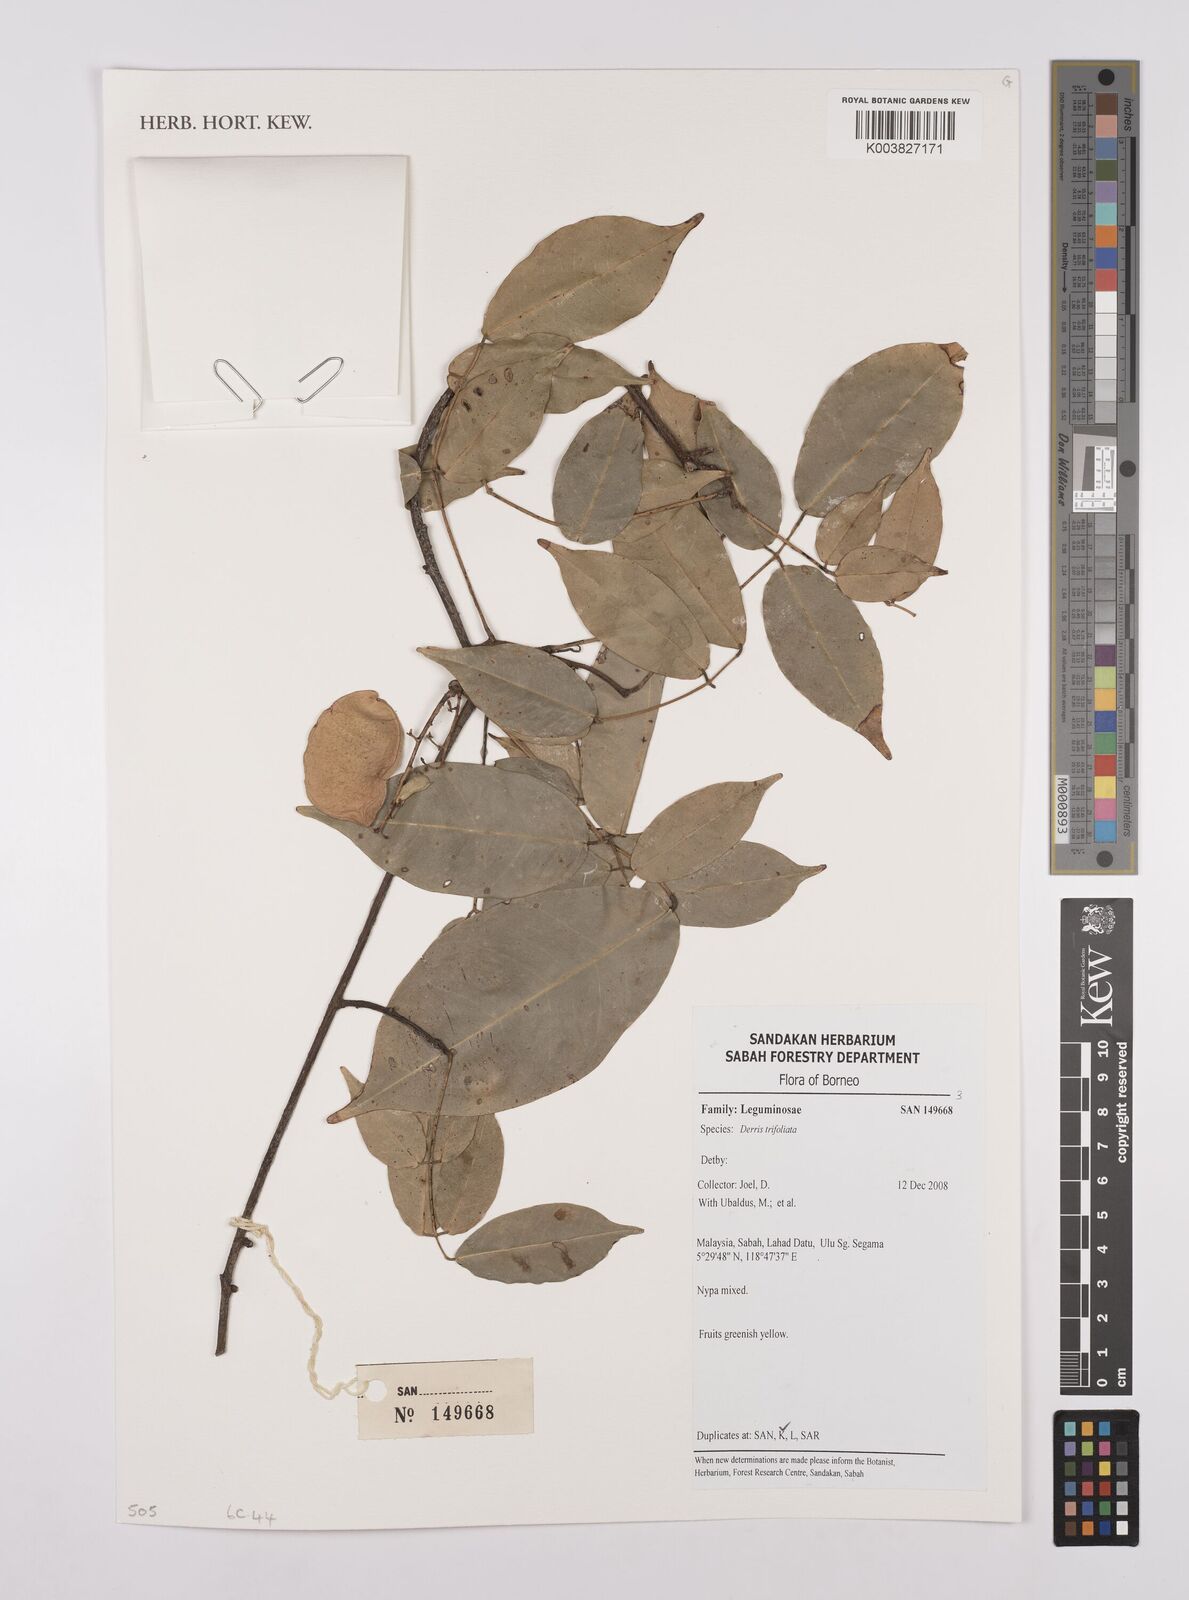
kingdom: Plantae
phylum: Tracheophyta
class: Magnoliopsida
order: Fabales
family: Fabaceae
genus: Derris
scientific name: Derris trifoliata
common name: Three-leaf derris
